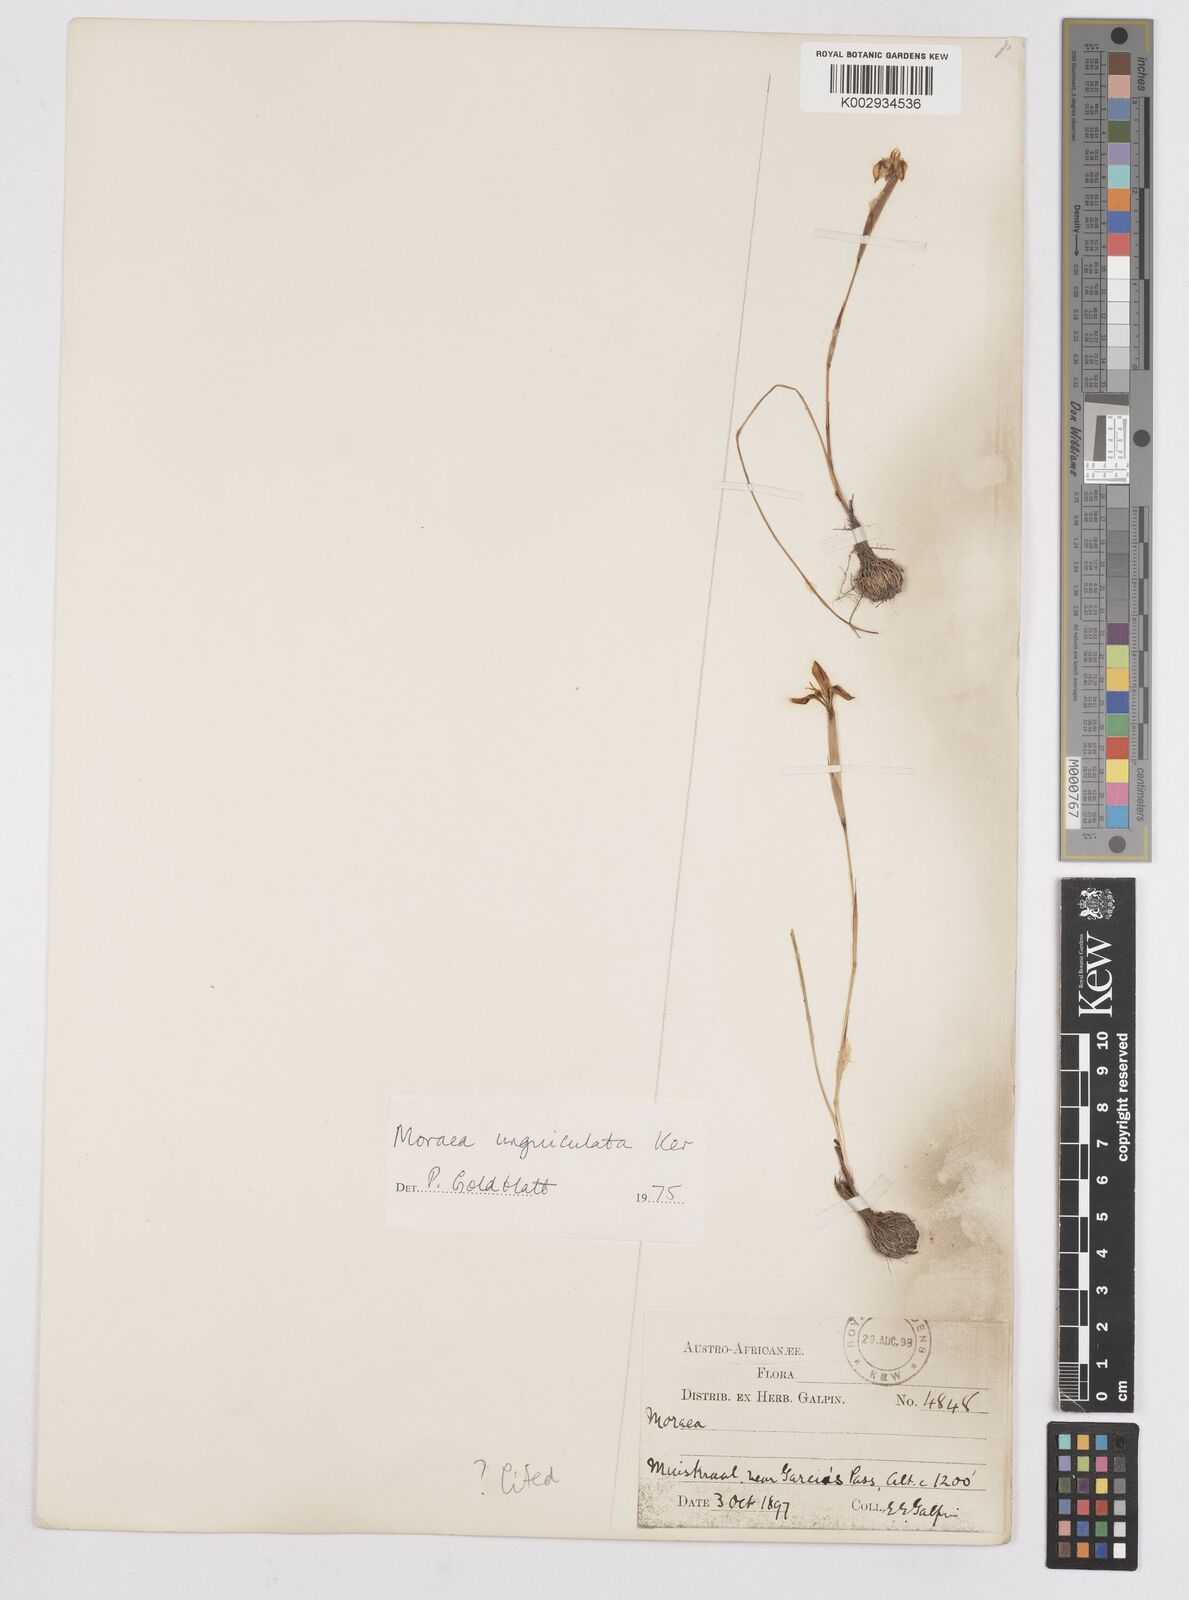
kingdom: Plantae
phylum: Tracheophyta
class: Liliopsida
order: Asparagales
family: Iridaceae
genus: Moraea
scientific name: Moraea unguiculata
